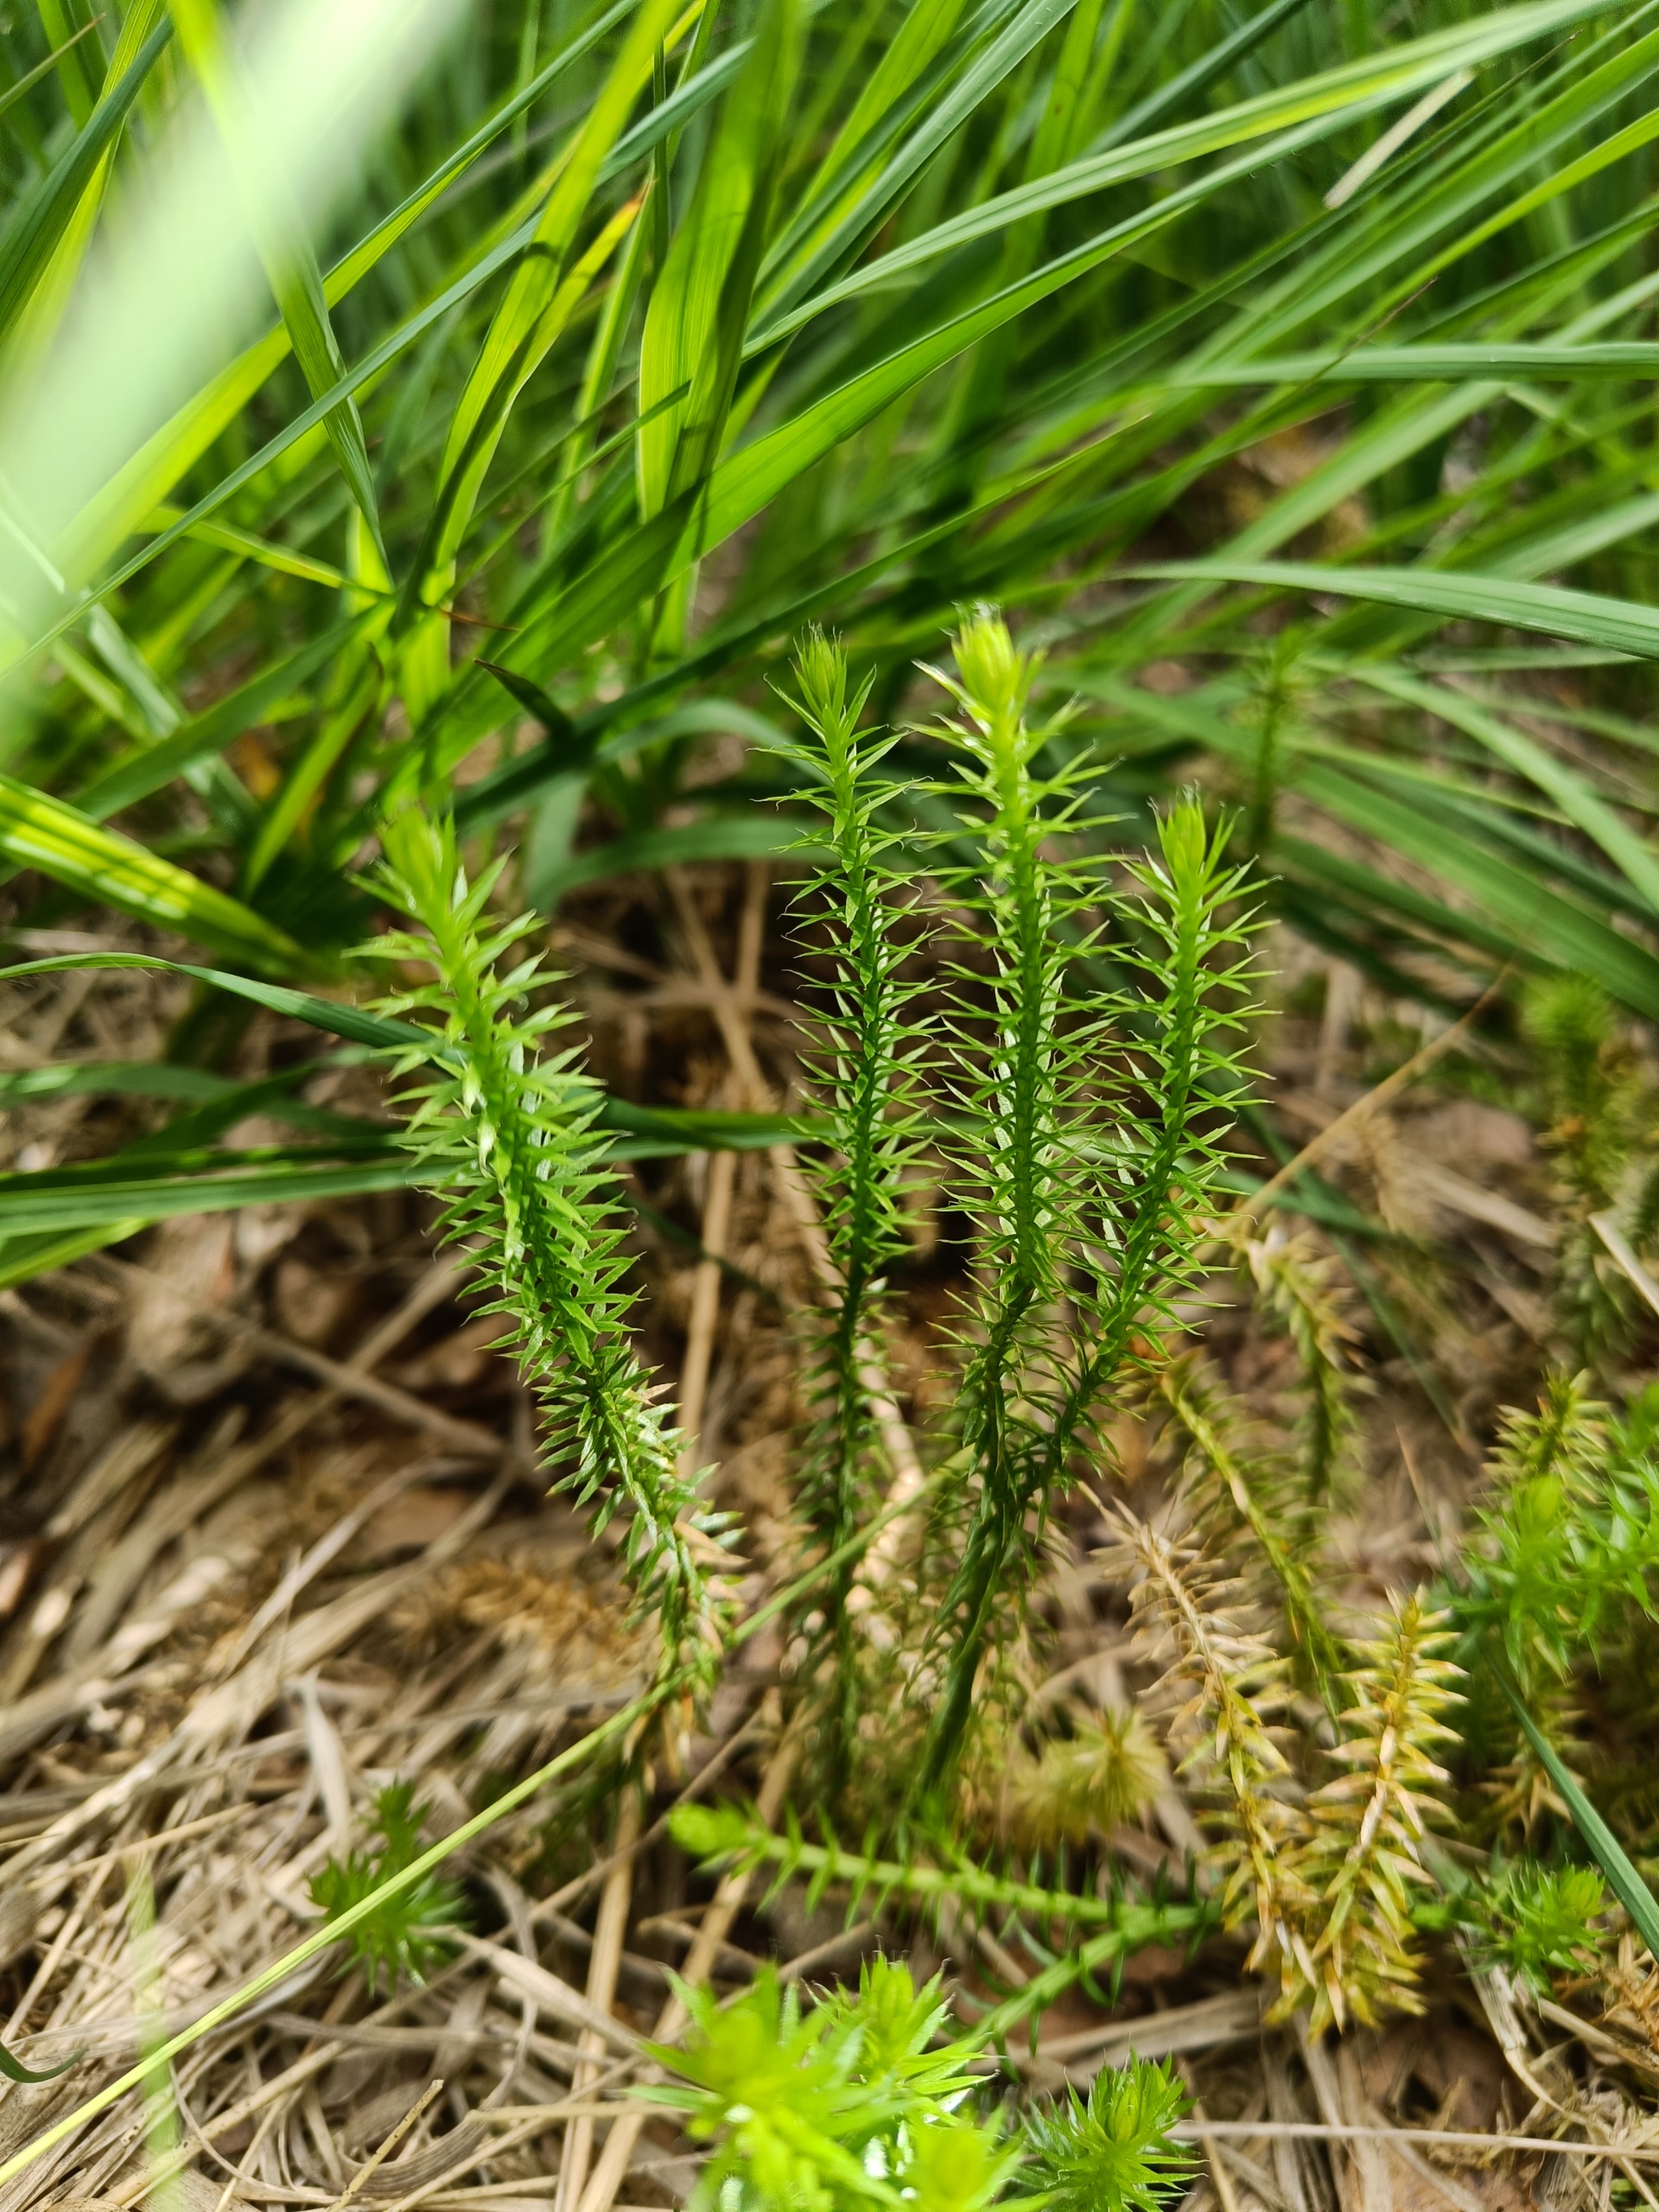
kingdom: Plantae
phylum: Tracheophyta
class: Lycopodiopsida
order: Lycopodiales
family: Lycopodiaceae
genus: Spinulum
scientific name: Spinulum annotinum
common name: Femradet ulvefod
